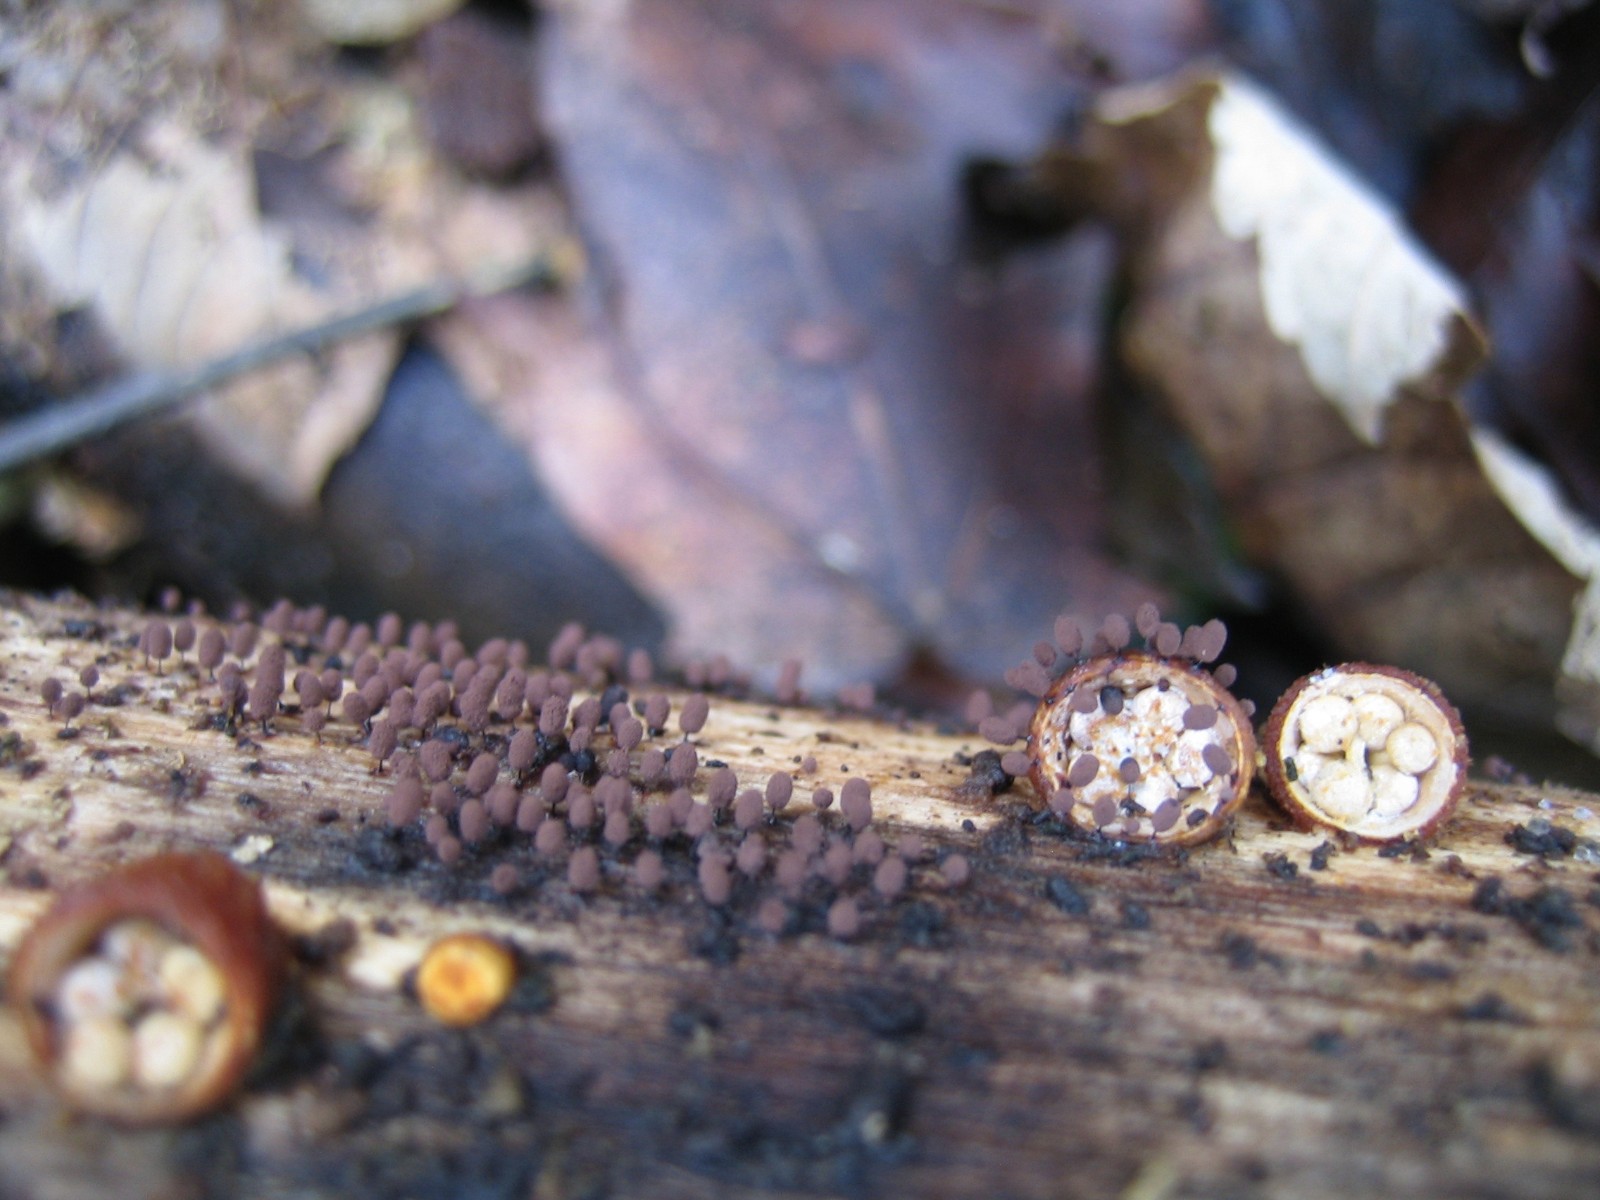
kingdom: Protozoa
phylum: Mycetozoa
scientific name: Mycetozoa
